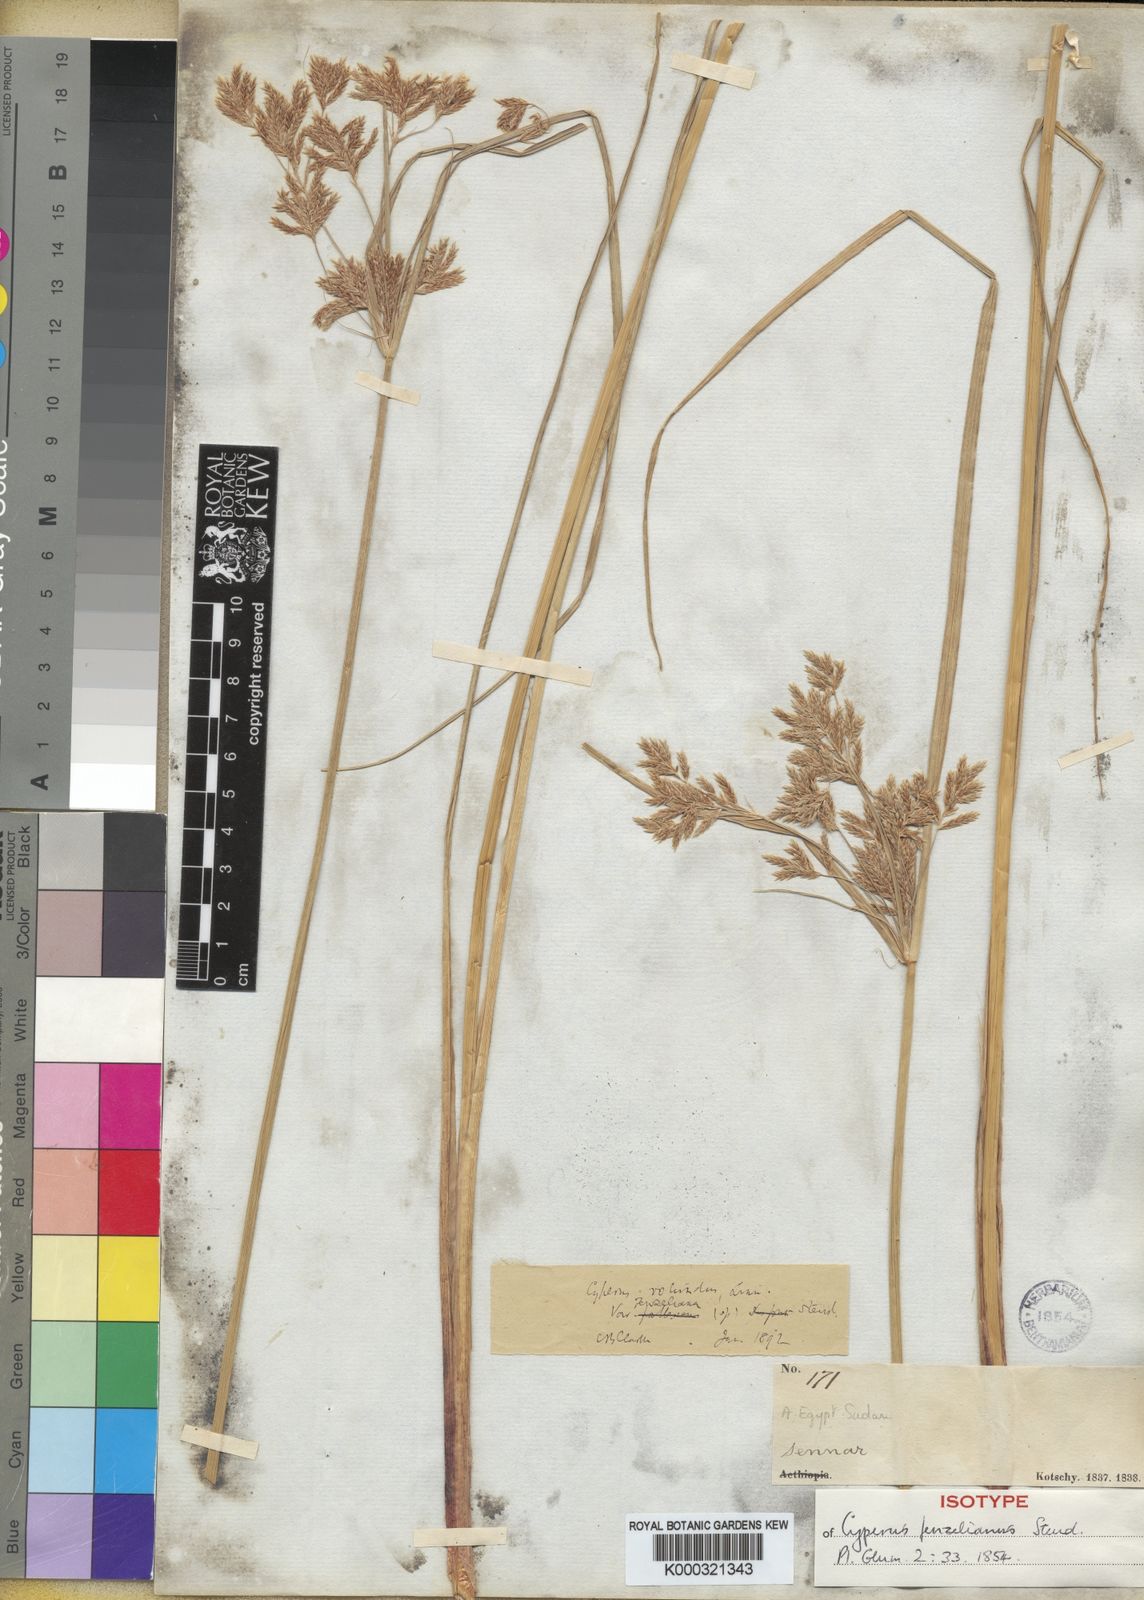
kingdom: Plantae
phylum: Tracheophyta
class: Liliopsida
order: Poales
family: Cyperaceae
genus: Cyperus
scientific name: Cyperus longus
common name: Galingale
